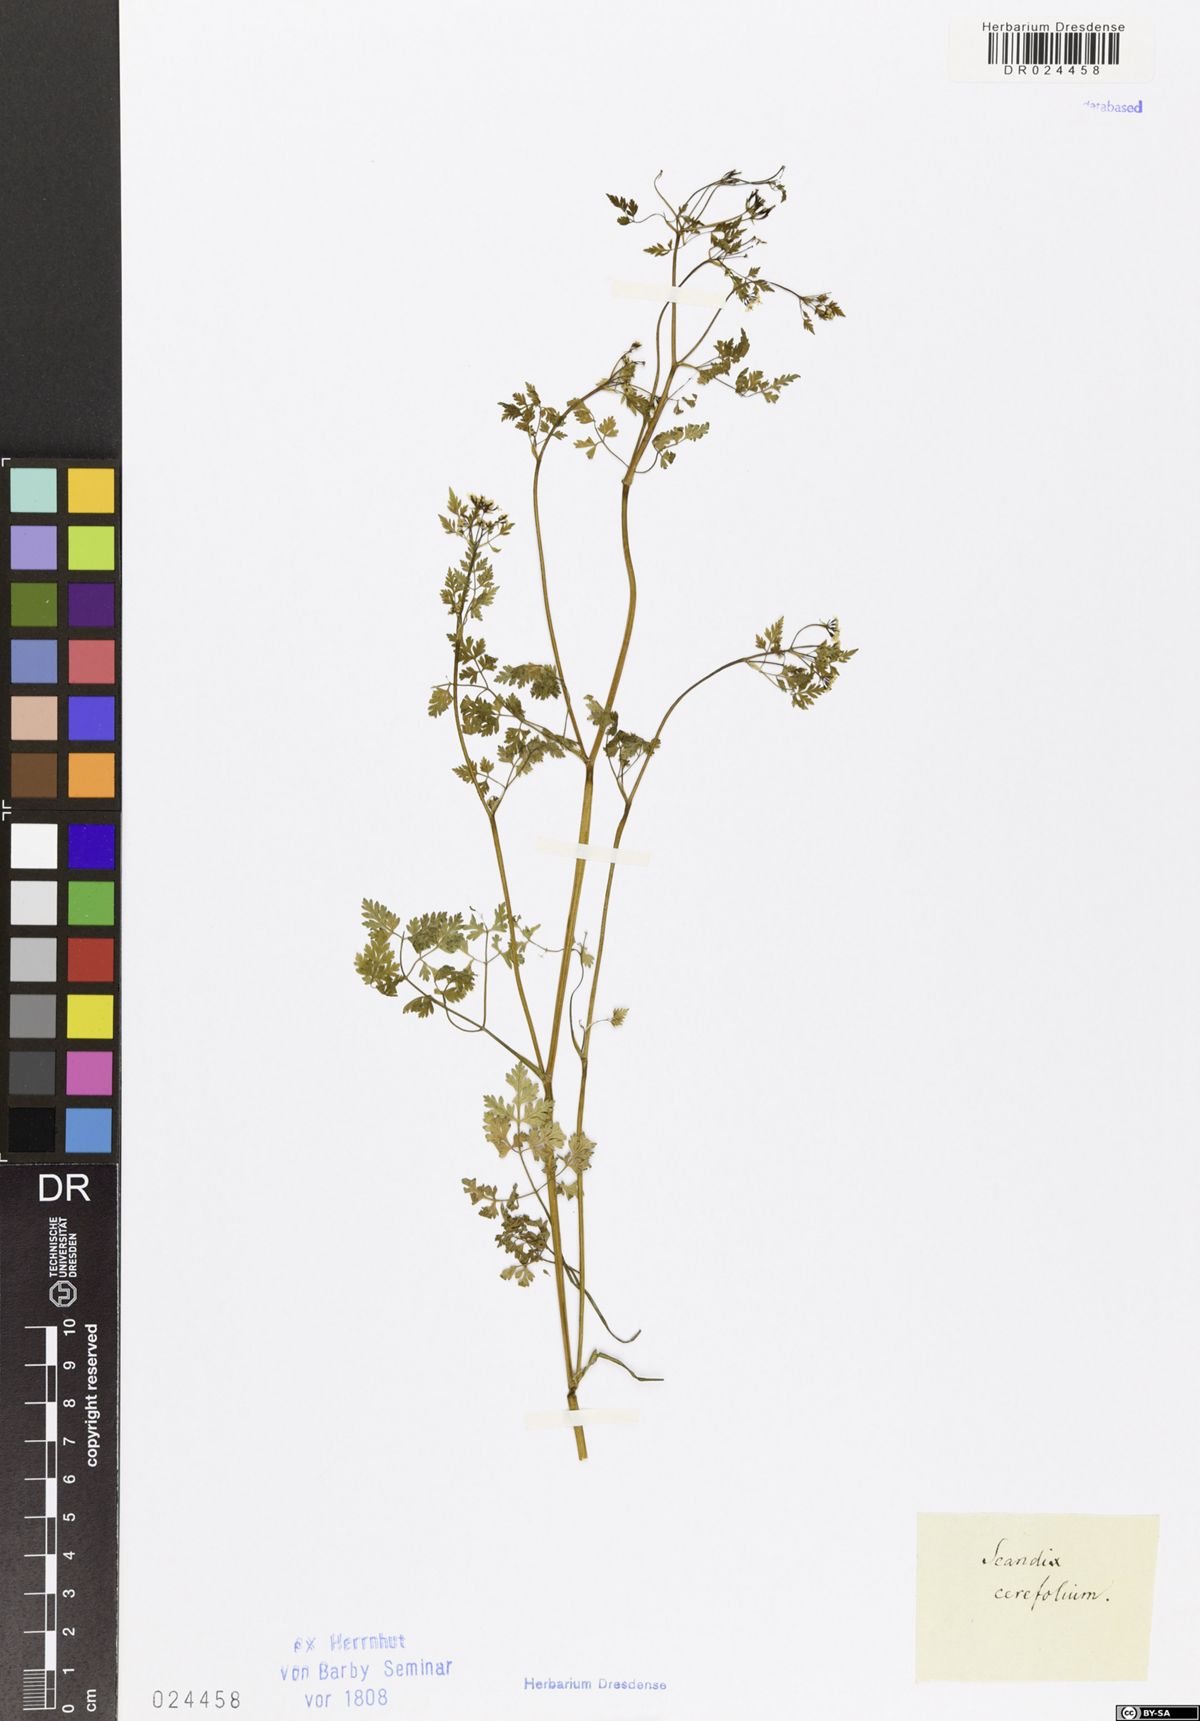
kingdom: Plantae
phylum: Tracheophyta
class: Magnoliopsida
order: Apiales
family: Apiaceae
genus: Anthriscus
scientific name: Anthriscus cerefolium
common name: Garden chervil
